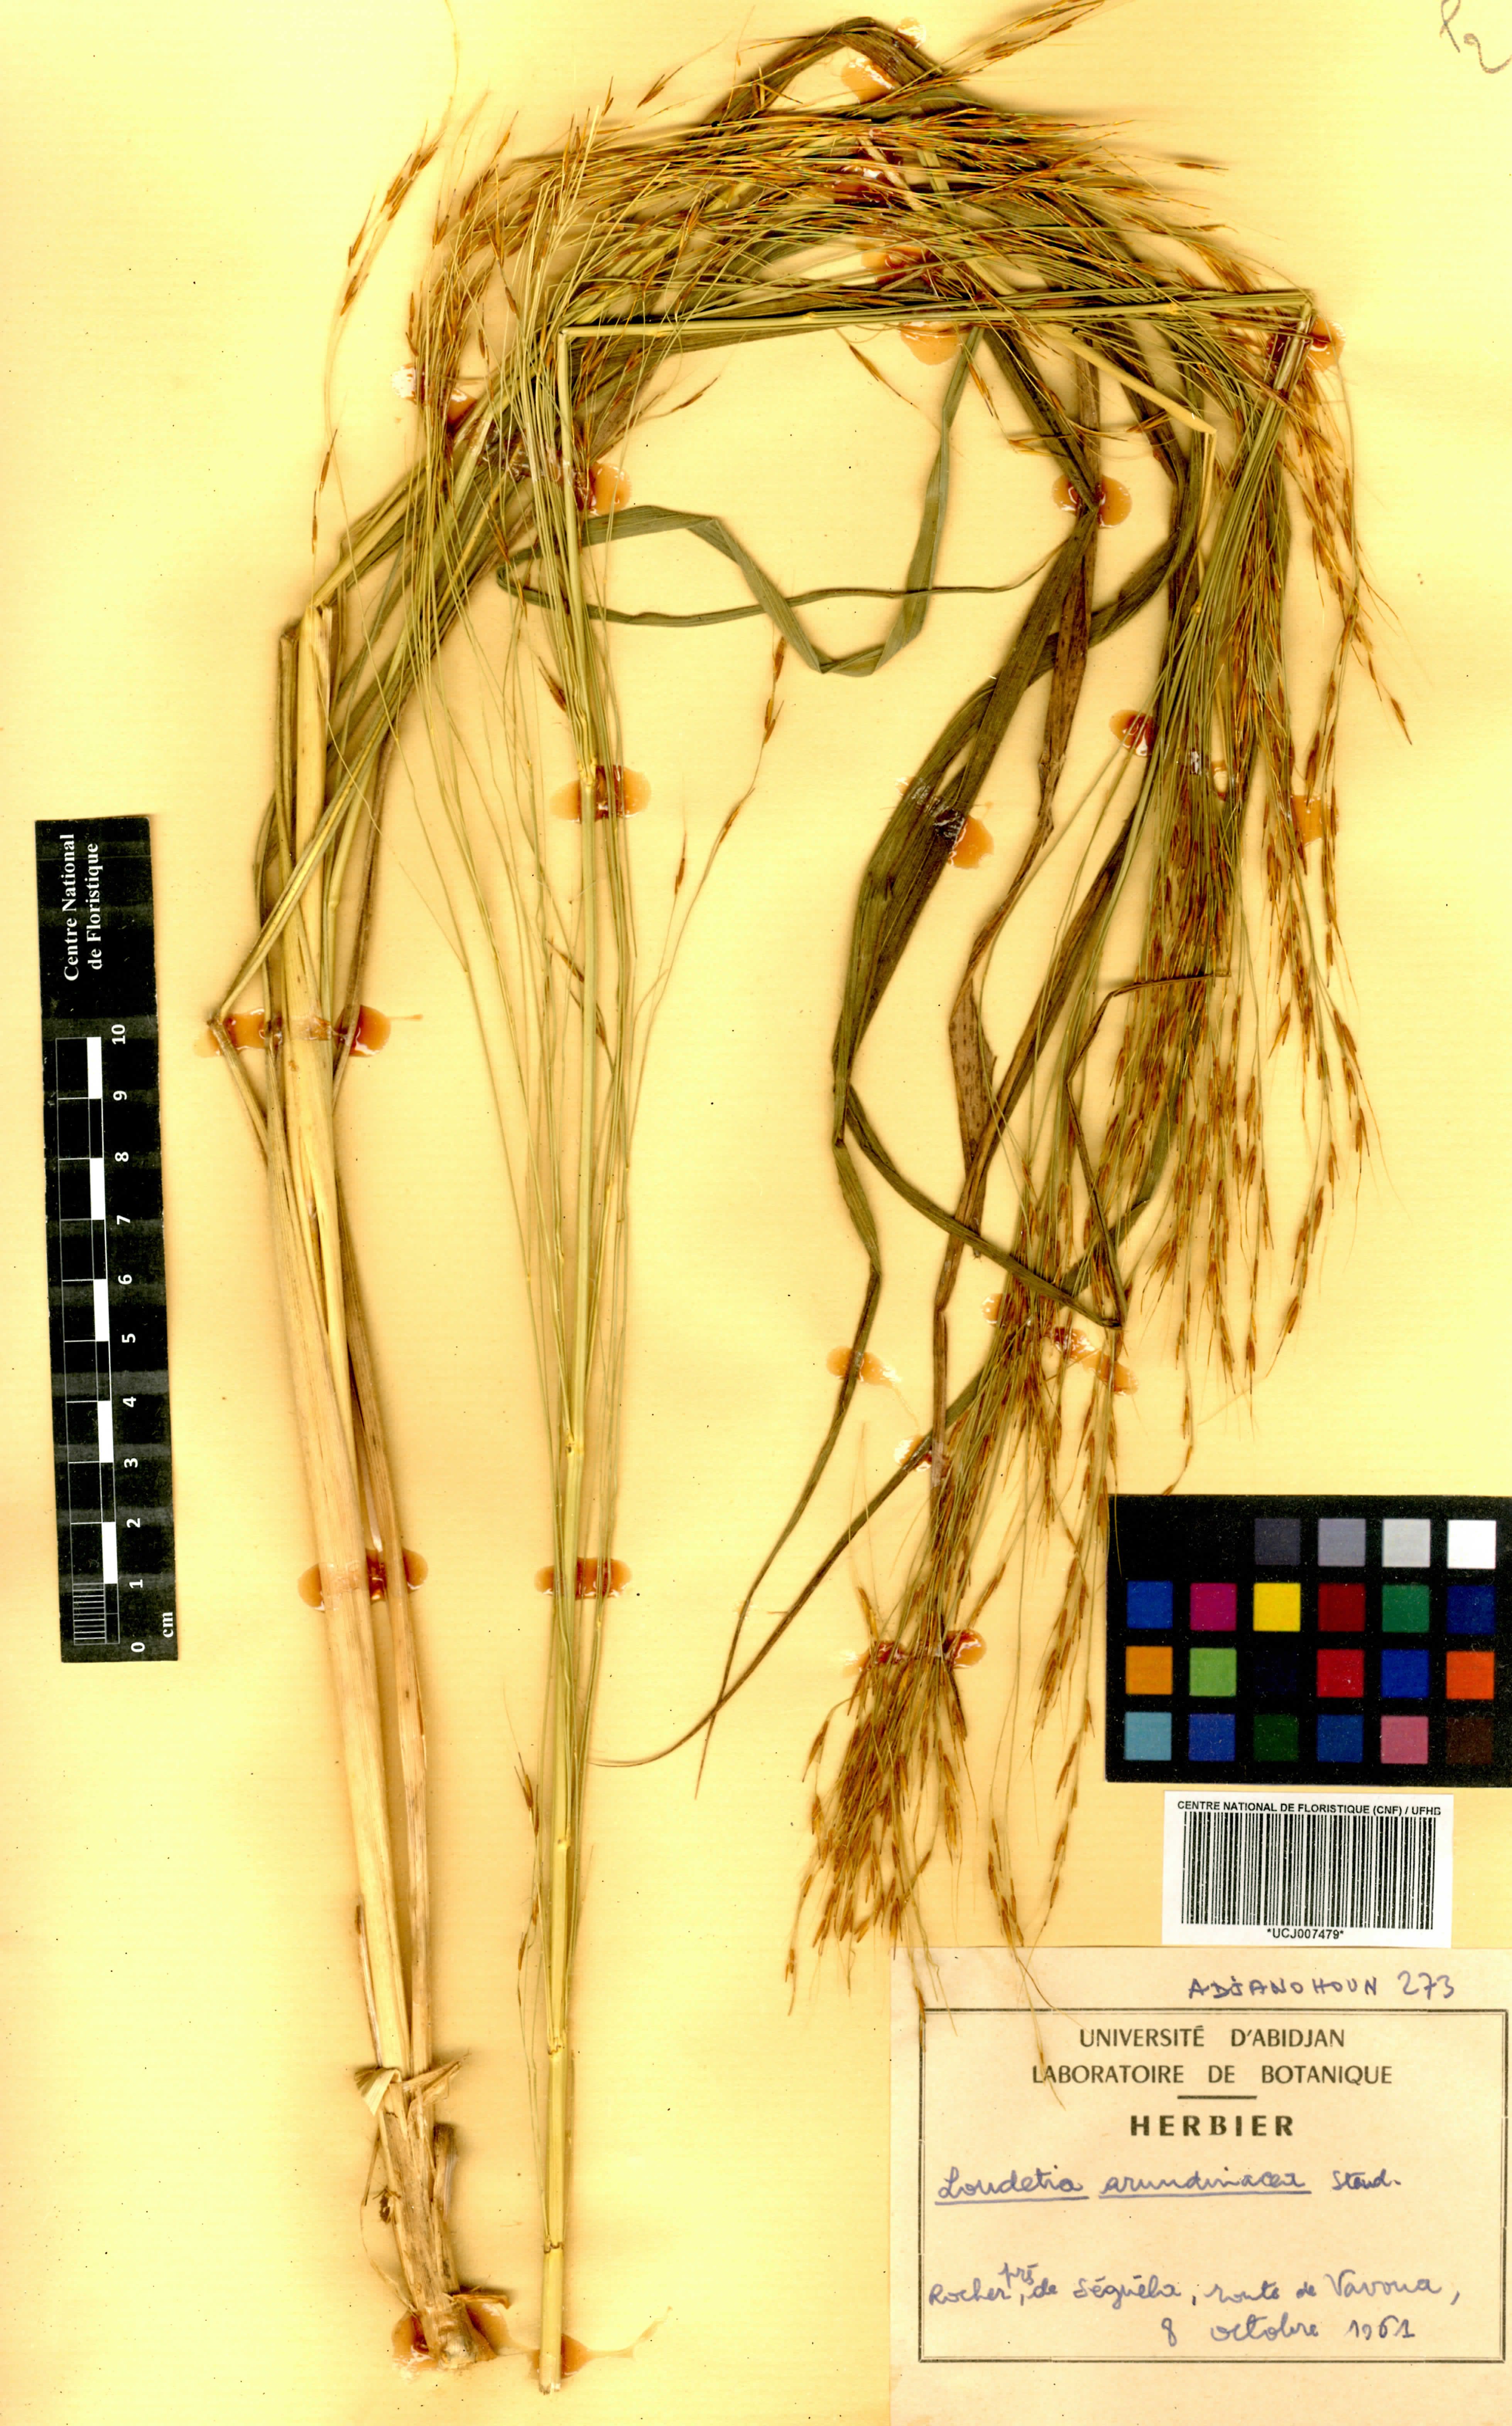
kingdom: Plantae
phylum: Tracheophyta
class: Liliopsida
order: Poales
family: Poaceae
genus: Loudetia
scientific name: Loudetia arundinacea
